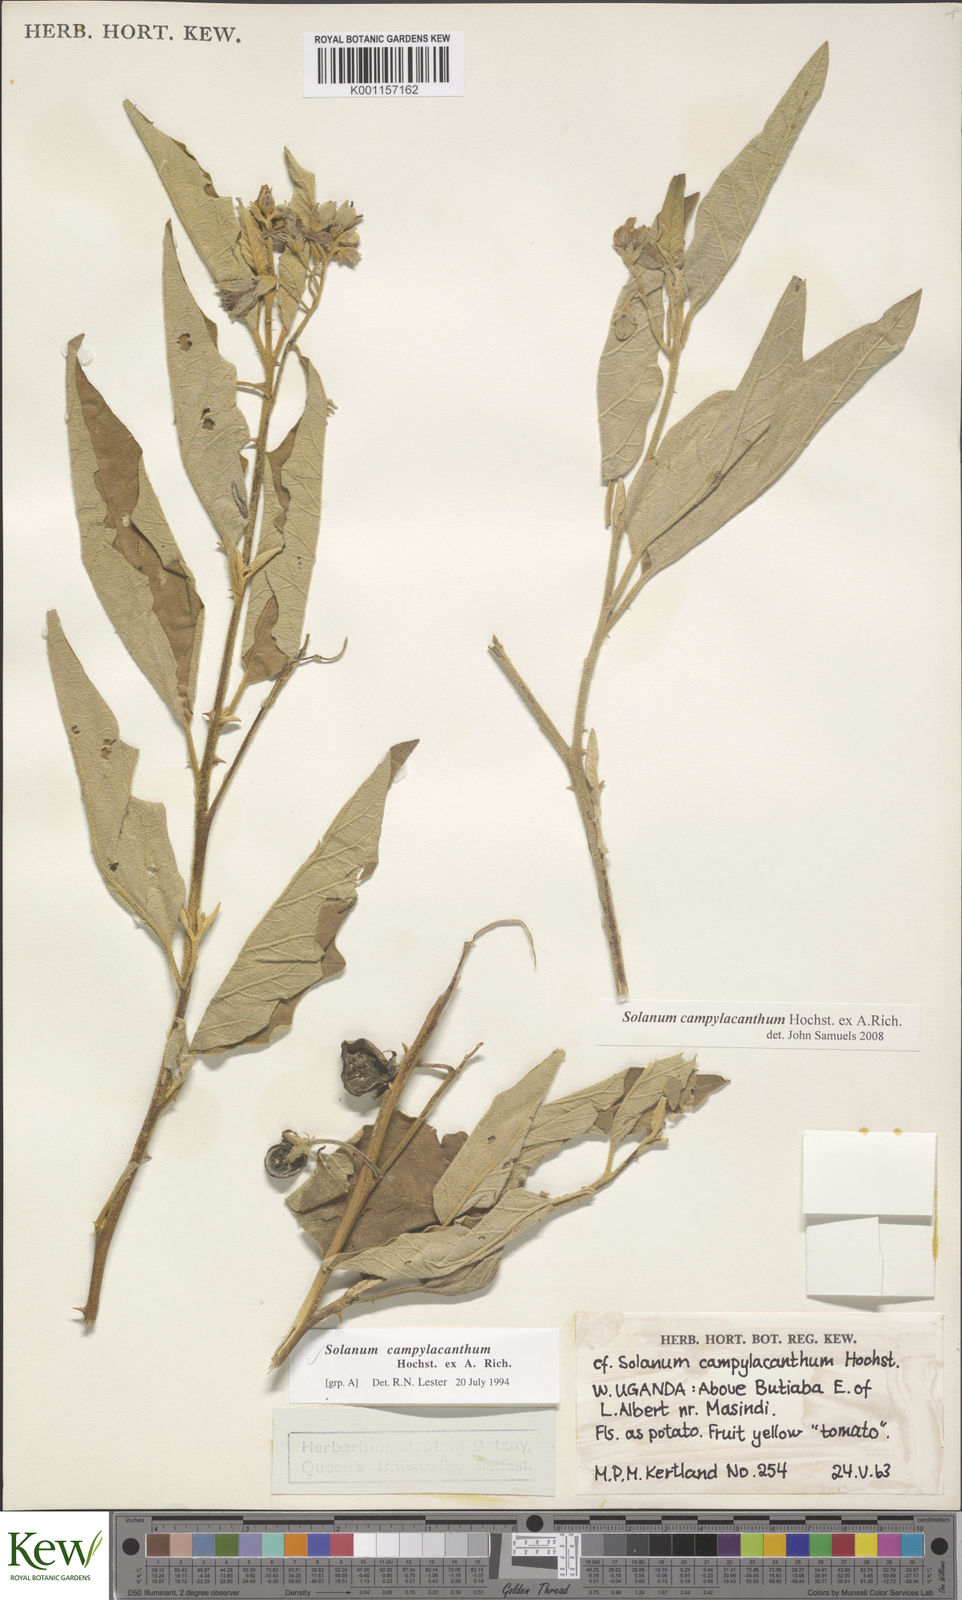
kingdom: Plantae
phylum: Tracheophyta
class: Magnoliopsida
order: Solanales
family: Solanaceae
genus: Solanum
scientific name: Solanum campylacanthum
